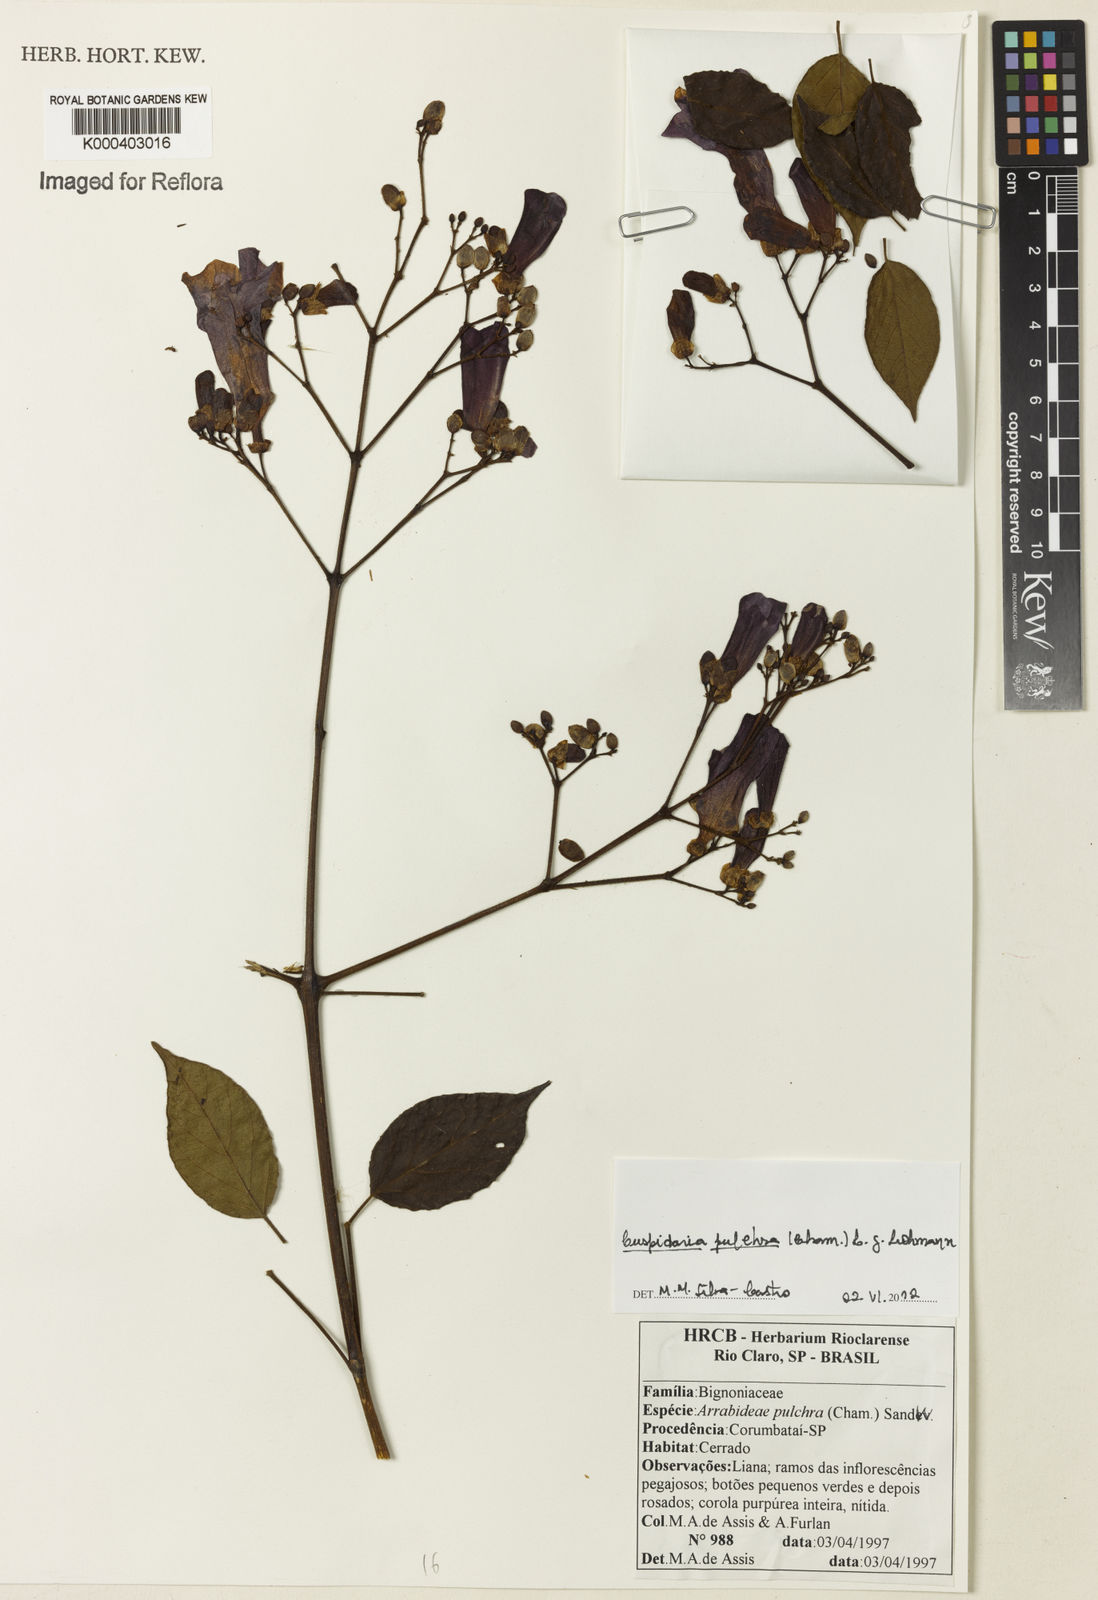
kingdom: Plantae
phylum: Tracheophyta
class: Magnoliopsida
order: Lamiales
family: Bignoniaceae
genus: Cuspidaria
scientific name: Cuspidaria pulchra
